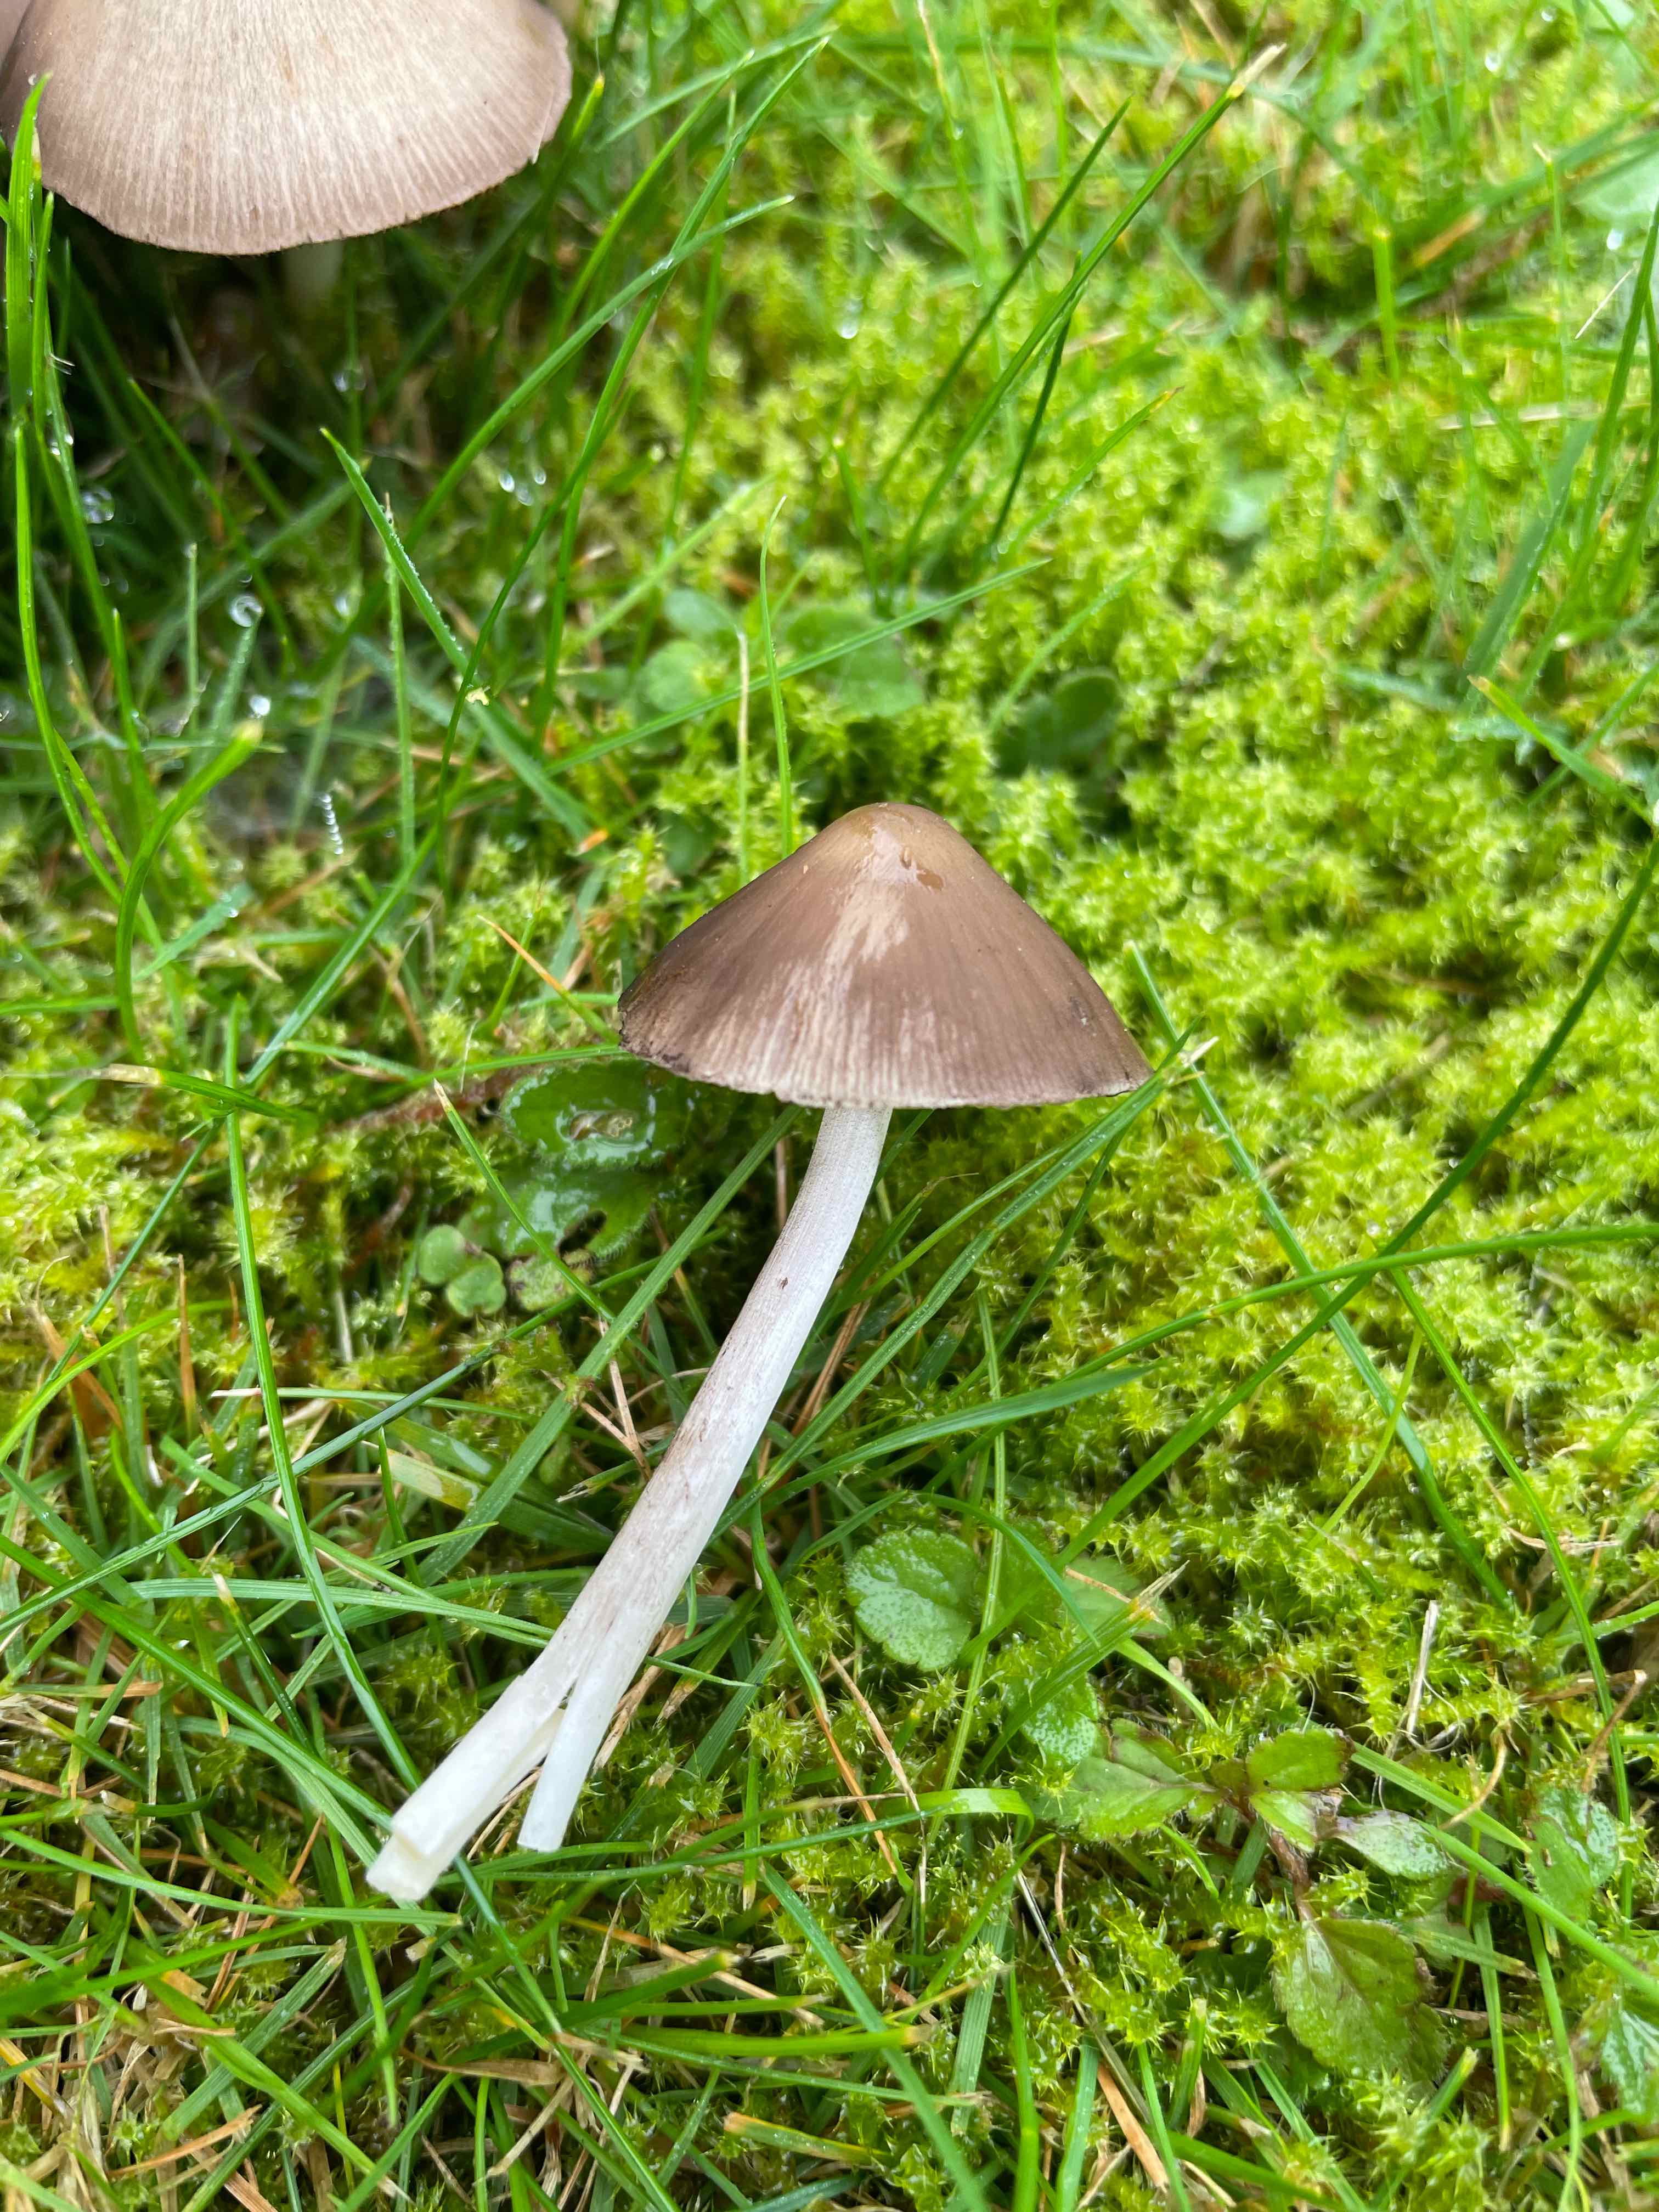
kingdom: Fungi
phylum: Basidiomycota
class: Agaricomycetes
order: Agaricales
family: Psathyrellaceae
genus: Psathyrella
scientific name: Psathyrella
